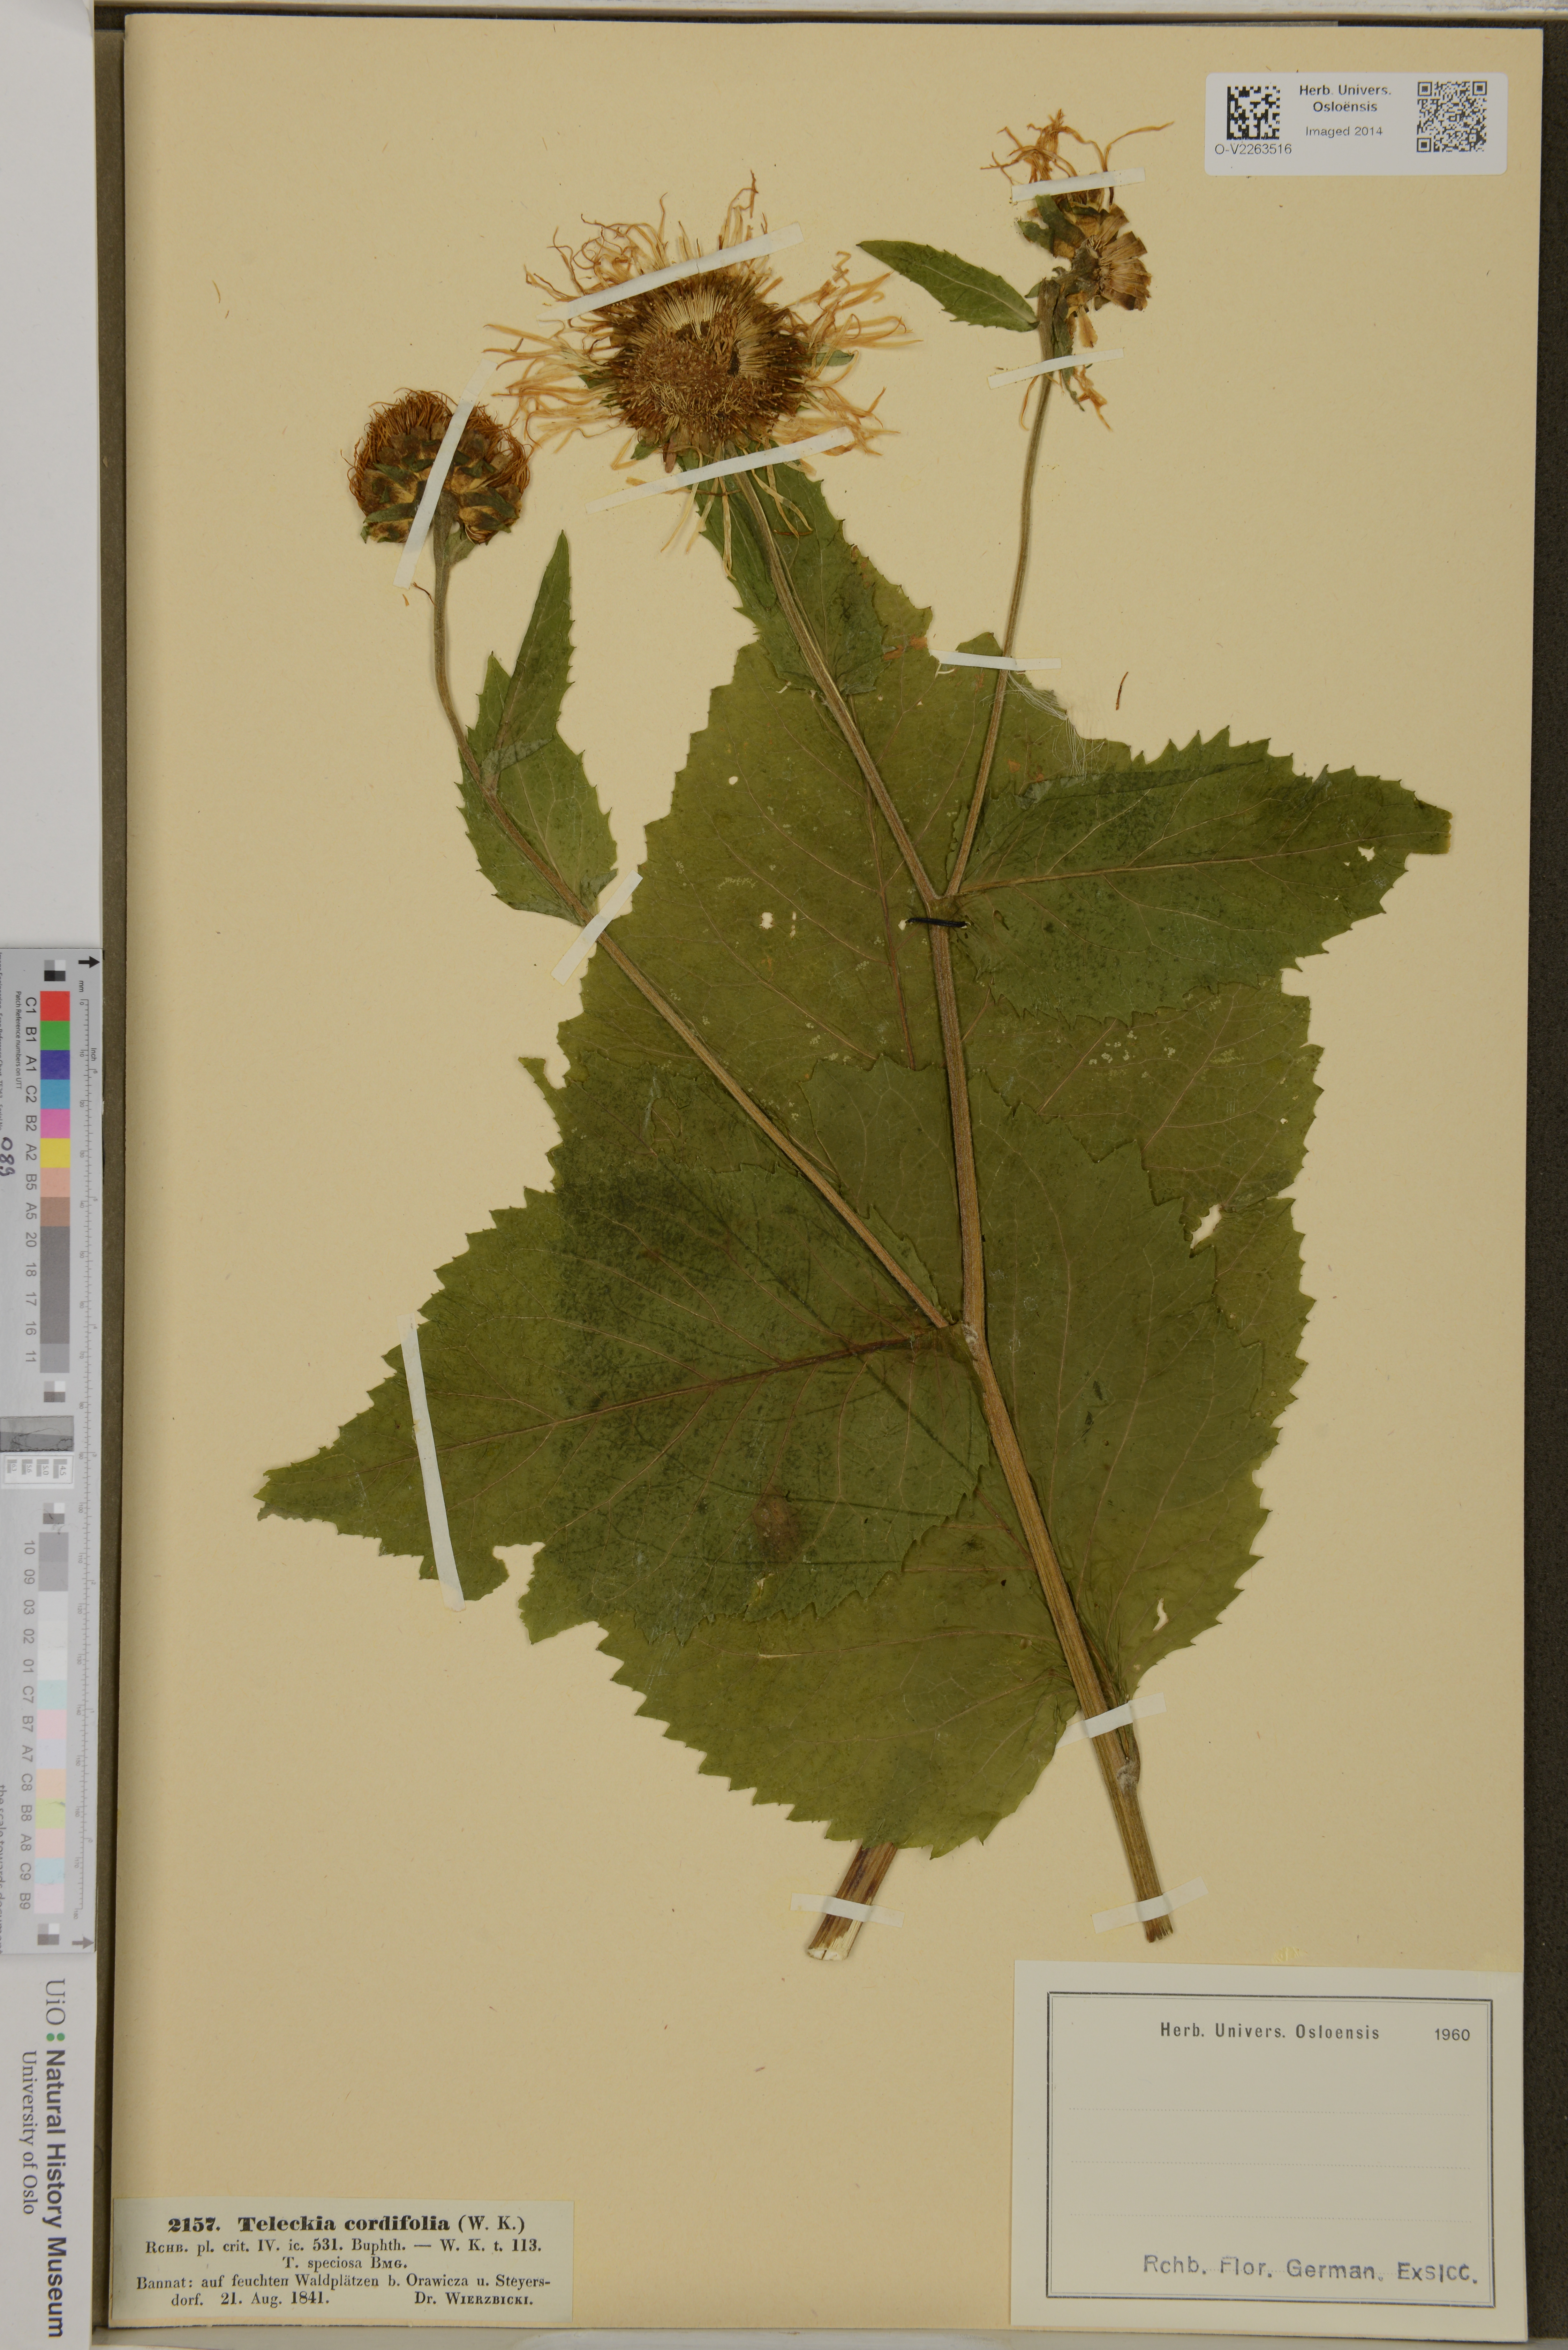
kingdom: Plantae
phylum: Tracheophyta
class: Magnoliopsida
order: Asterales
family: Asteraceae
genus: Telekia
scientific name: Telekia speciosa
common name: Yellow oxeye
